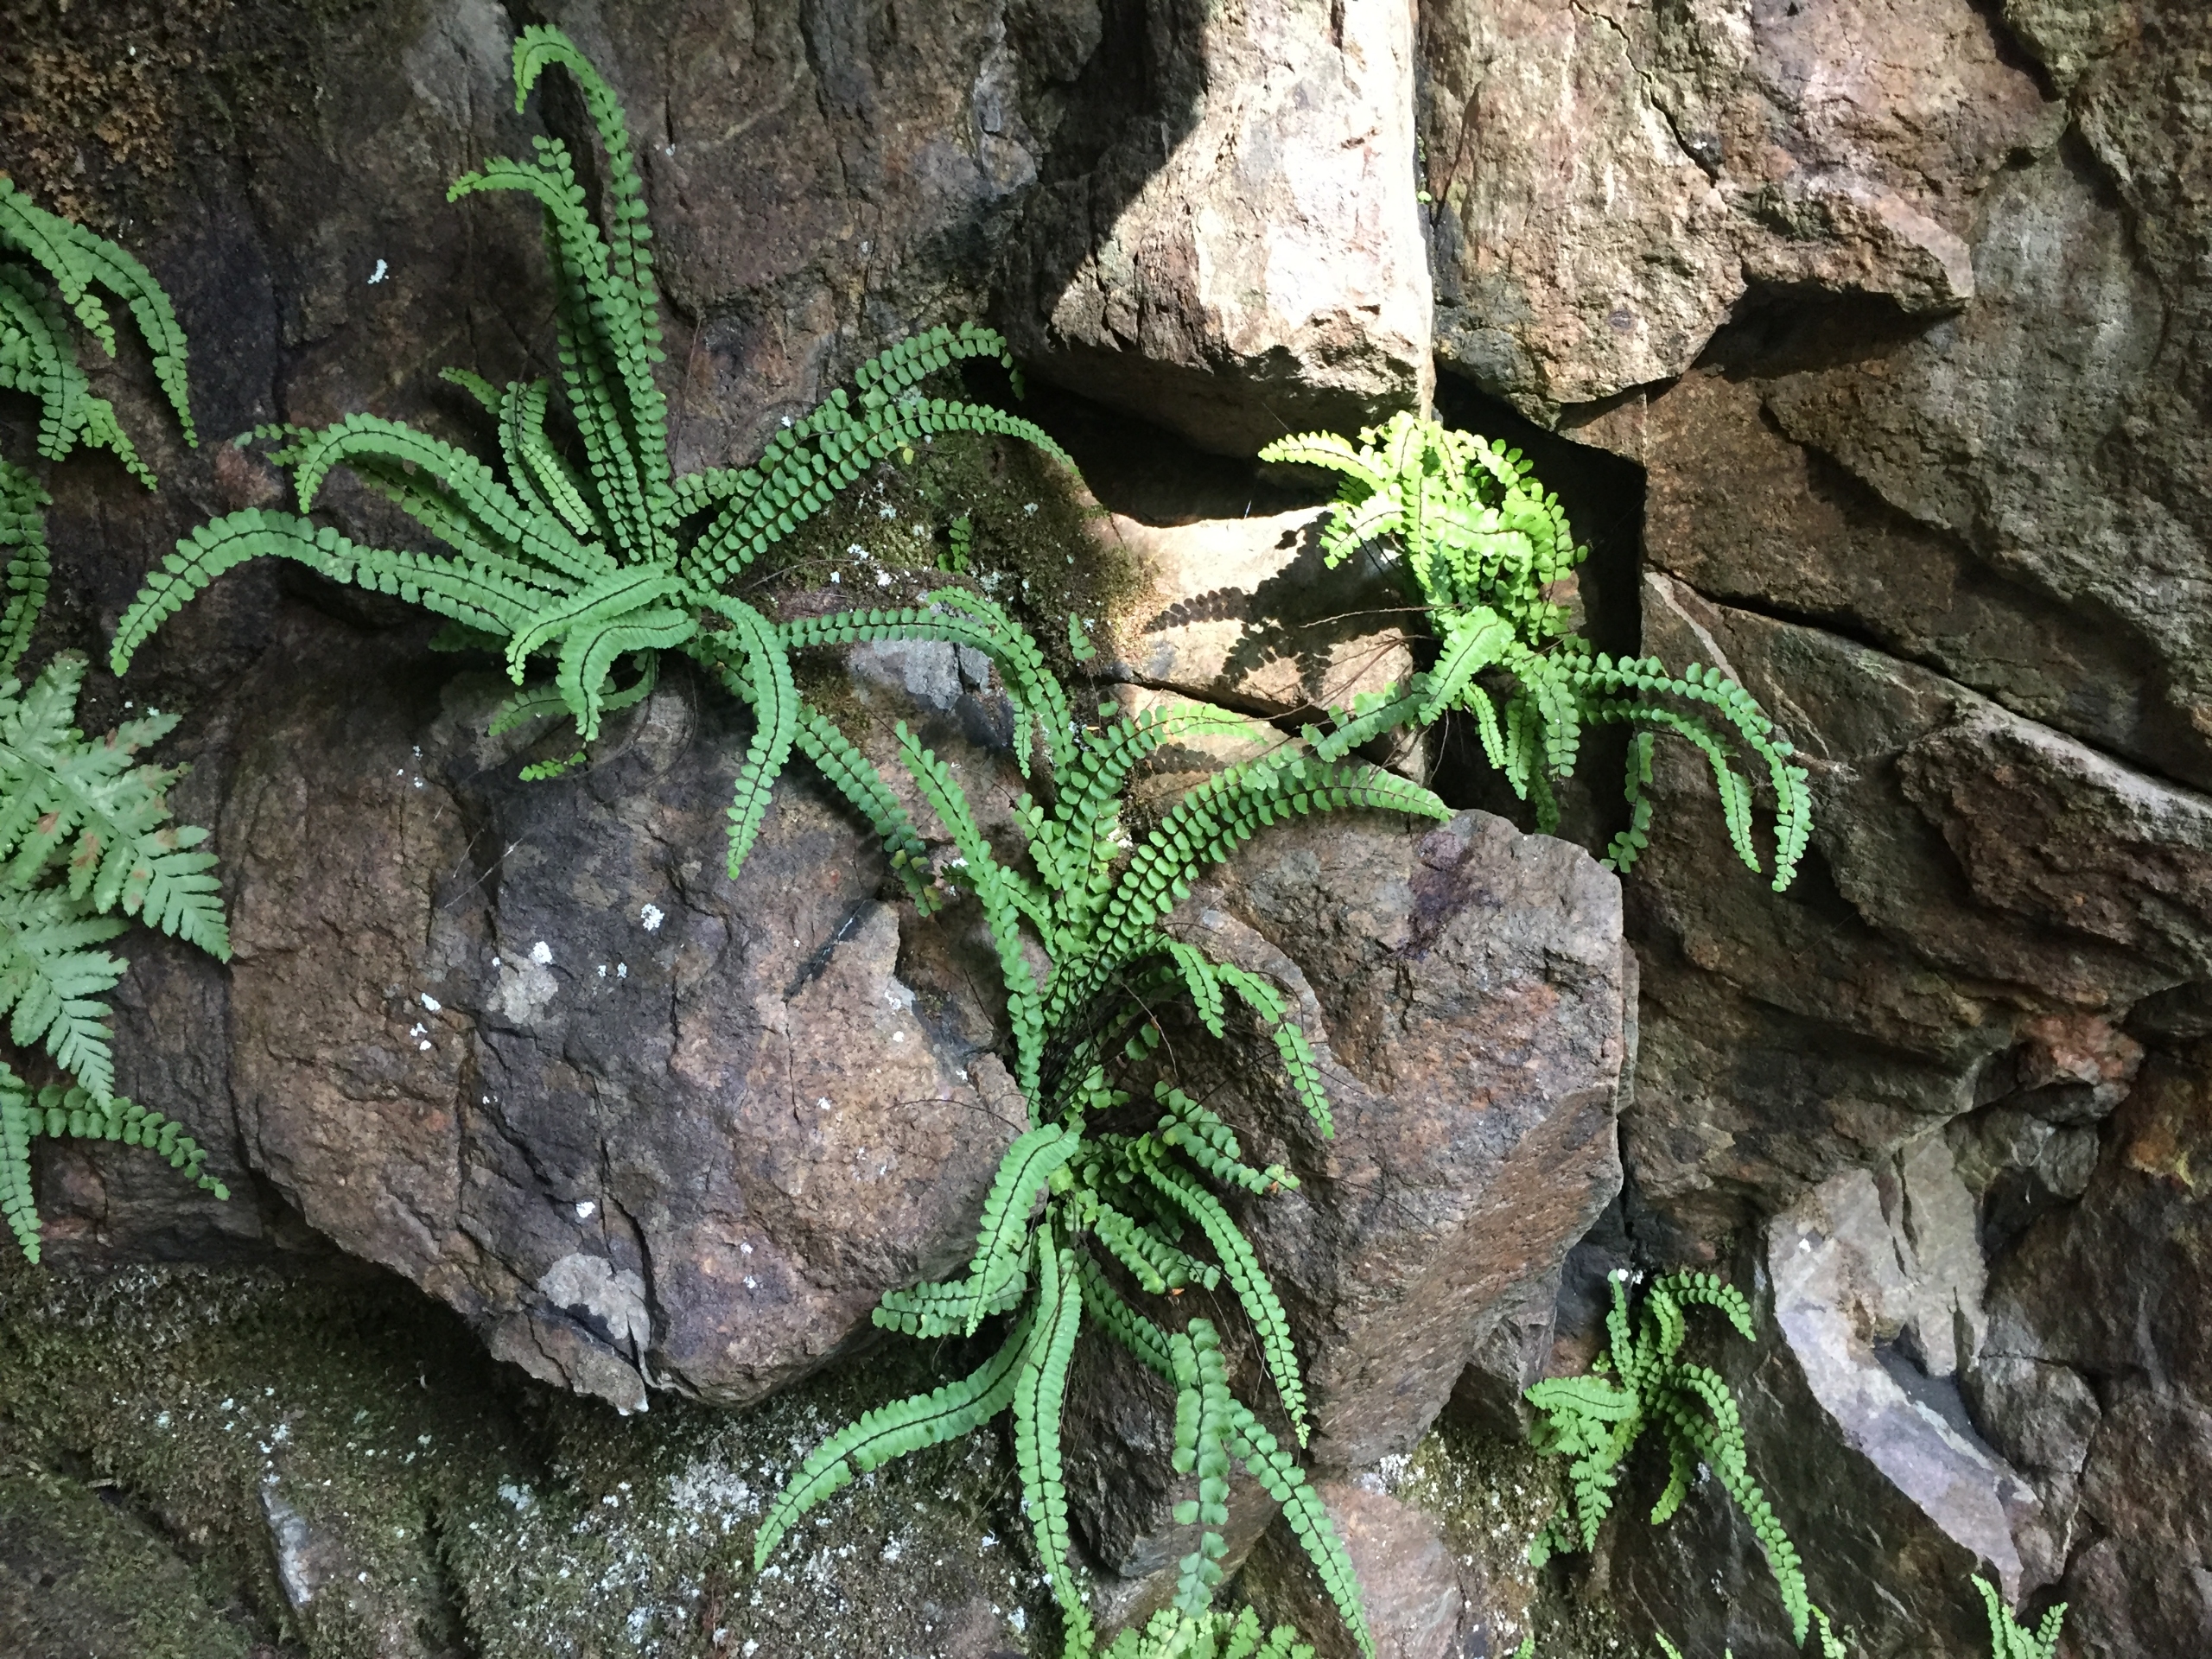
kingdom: Plantae
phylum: Tracheophyta
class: Polypodiopsida
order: Polypodiales
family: Aspleniaceae
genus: Asplenium
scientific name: Asplenium trichomanes
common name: Rundfinnet radeløv
